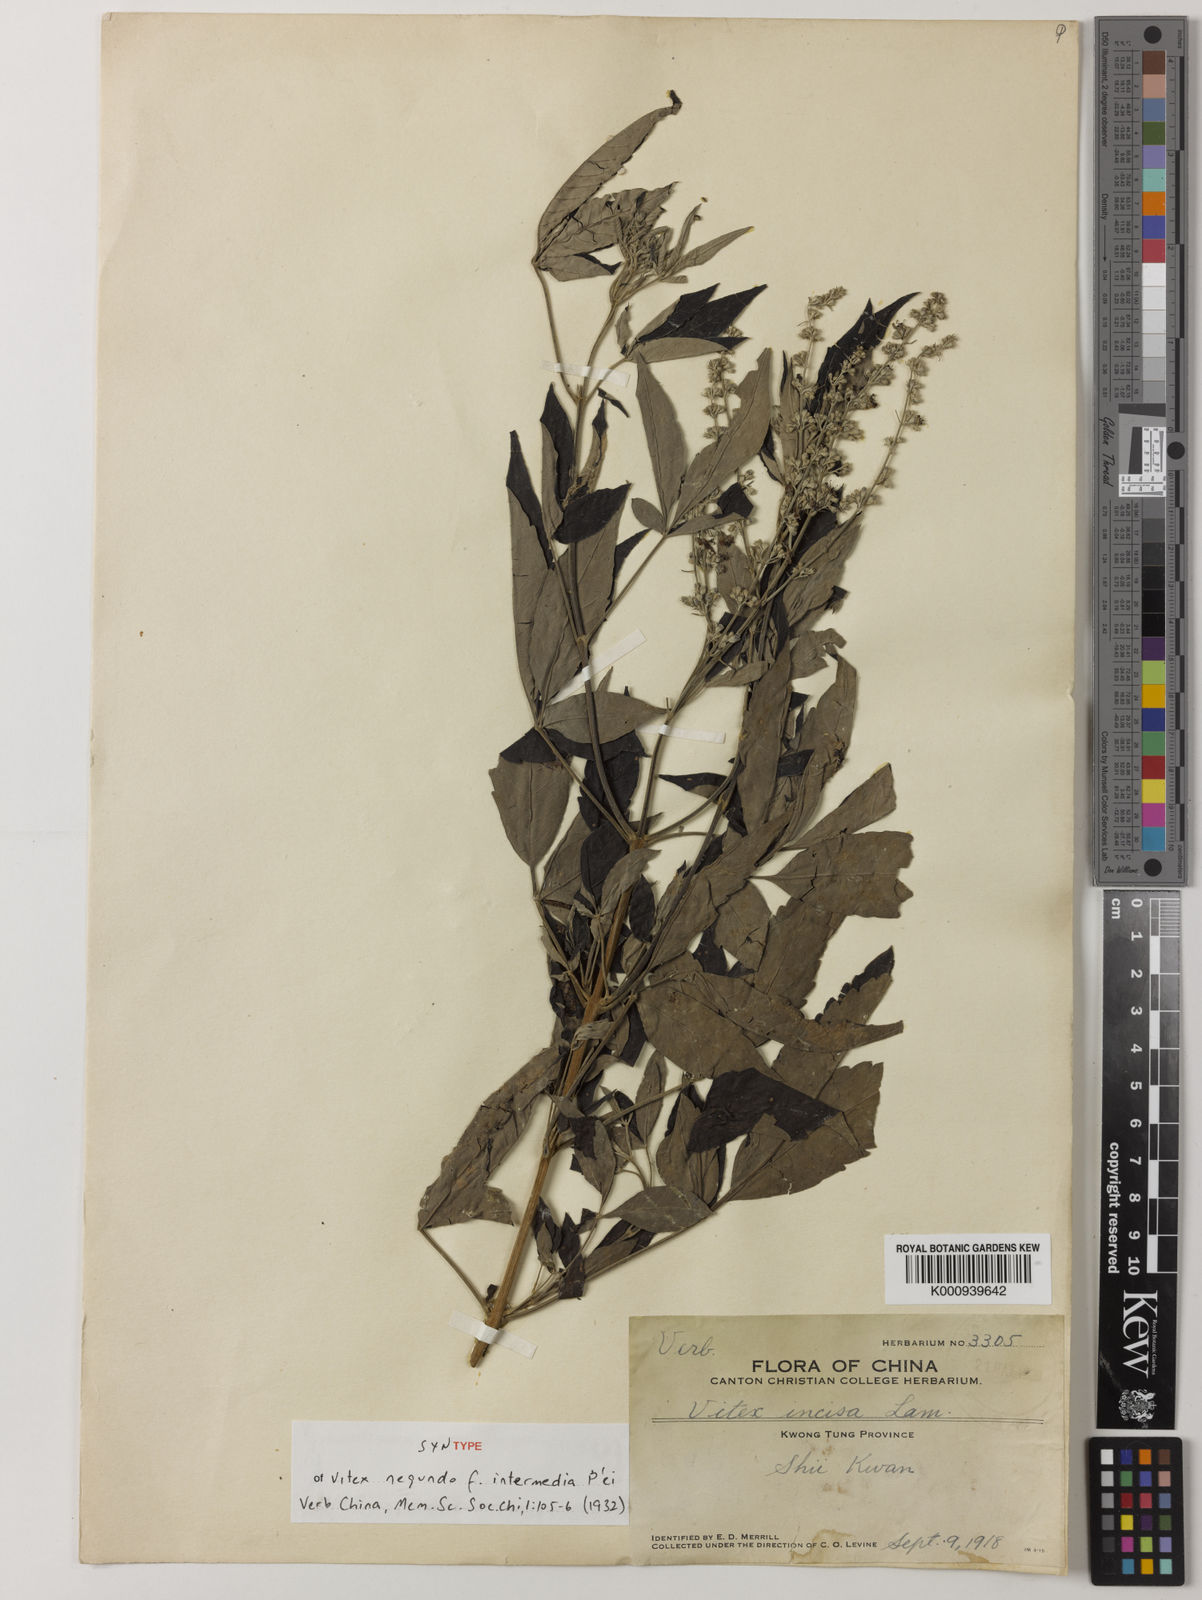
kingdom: Plantae
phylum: Tracheophyta
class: Magnoliopsida
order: Lamiales
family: Lamiaceae
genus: Vitex
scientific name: Vitex negundo
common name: Chinese chastetree
